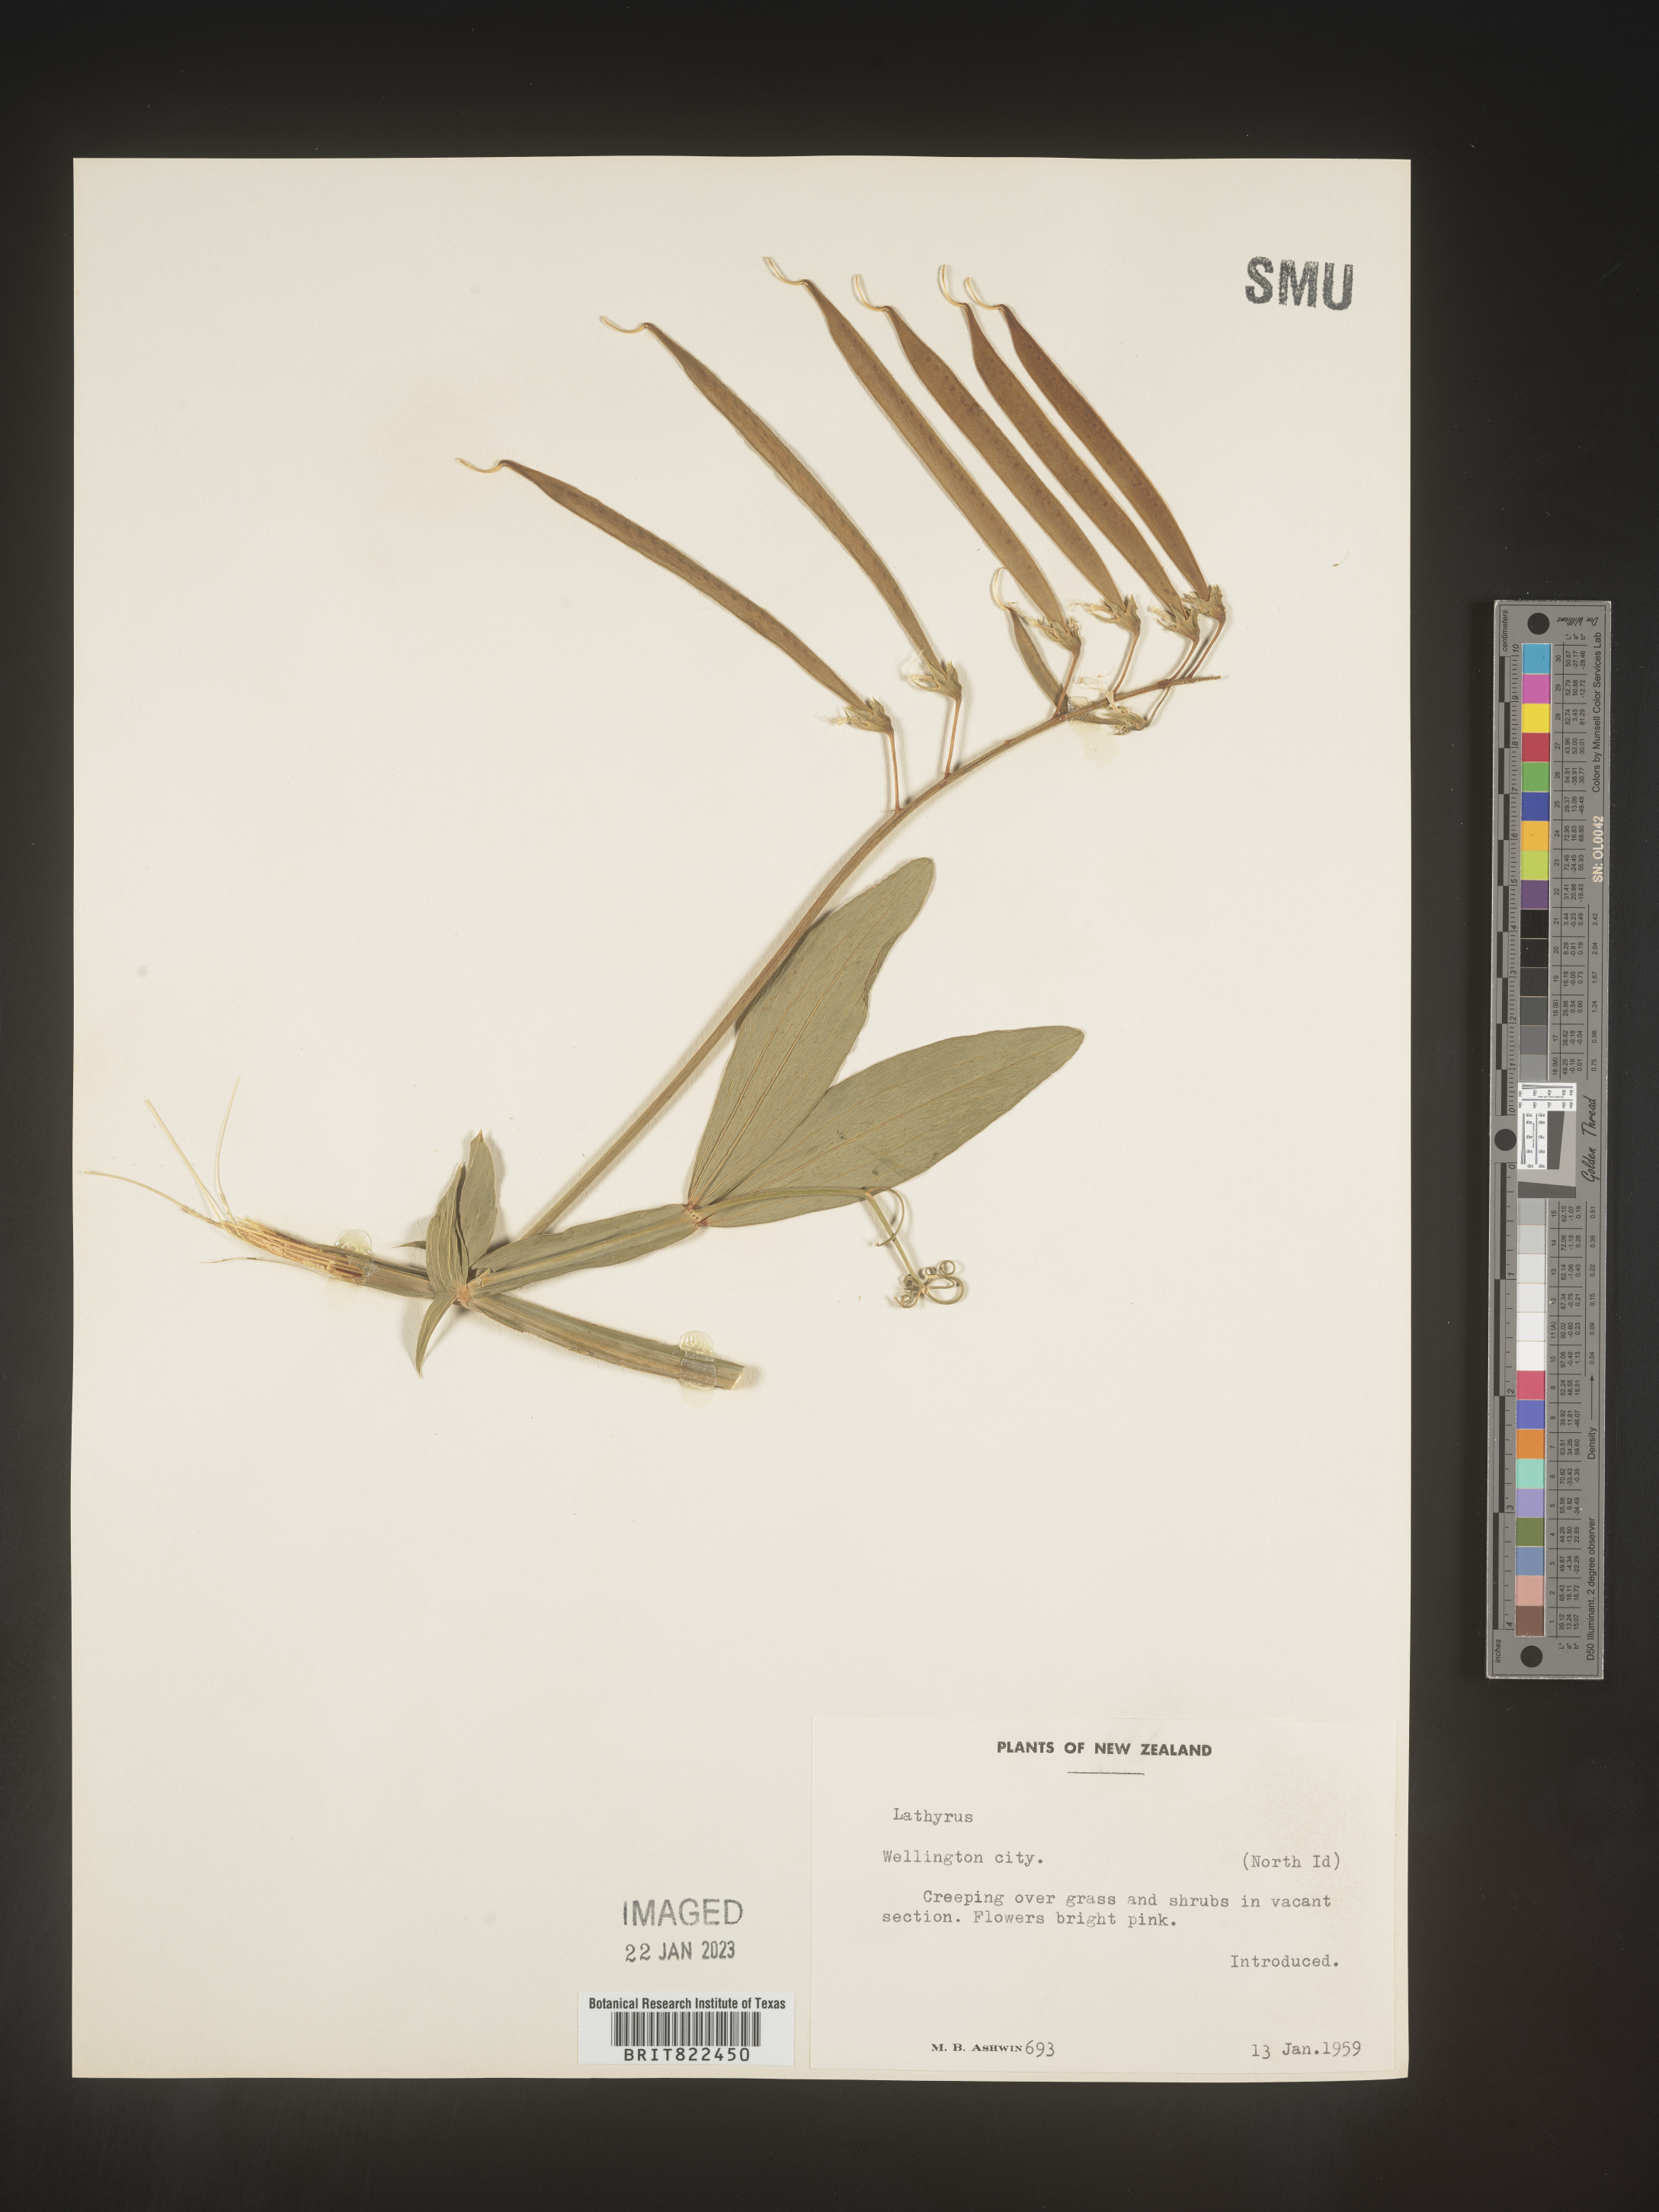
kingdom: Plantae
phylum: Tracheophyta
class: Magnoliopsida
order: Fabales
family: Fabaceae
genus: Lathyrus
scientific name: Lathyrus
